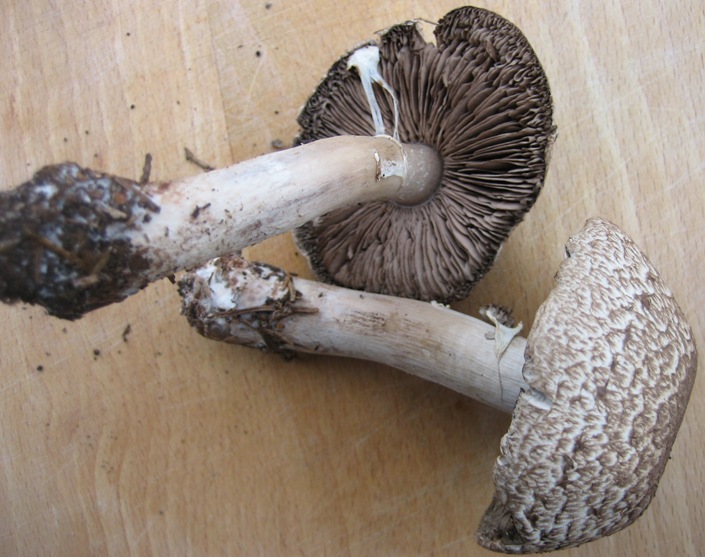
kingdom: Fungi
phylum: Basidiomycota
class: Agaricomycetes
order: Agaricales
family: Agaricaceae
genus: Agaricus
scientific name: Agaricus impudicus
